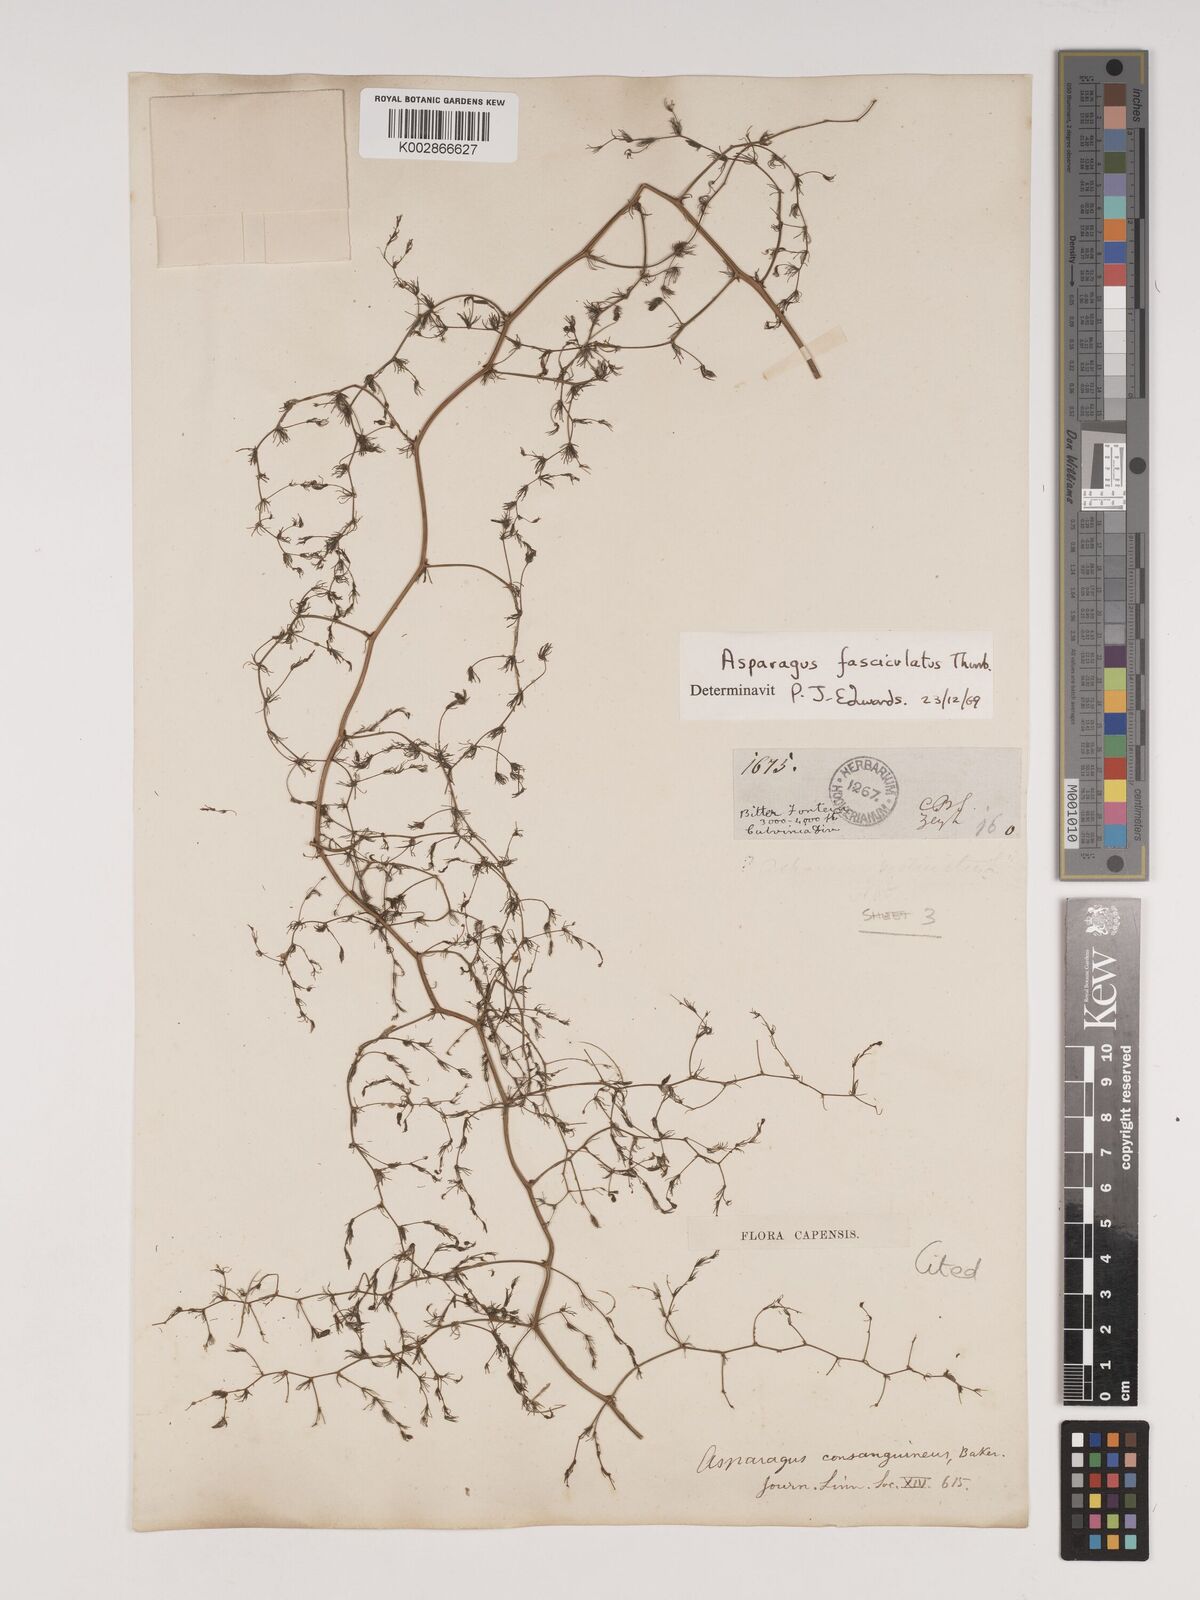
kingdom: Plantae
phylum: Tracheophyta
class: Liliopsida
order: Asparagales
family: Asparagaceae
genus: Asparagus
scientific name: Asparagus fasciculatus
